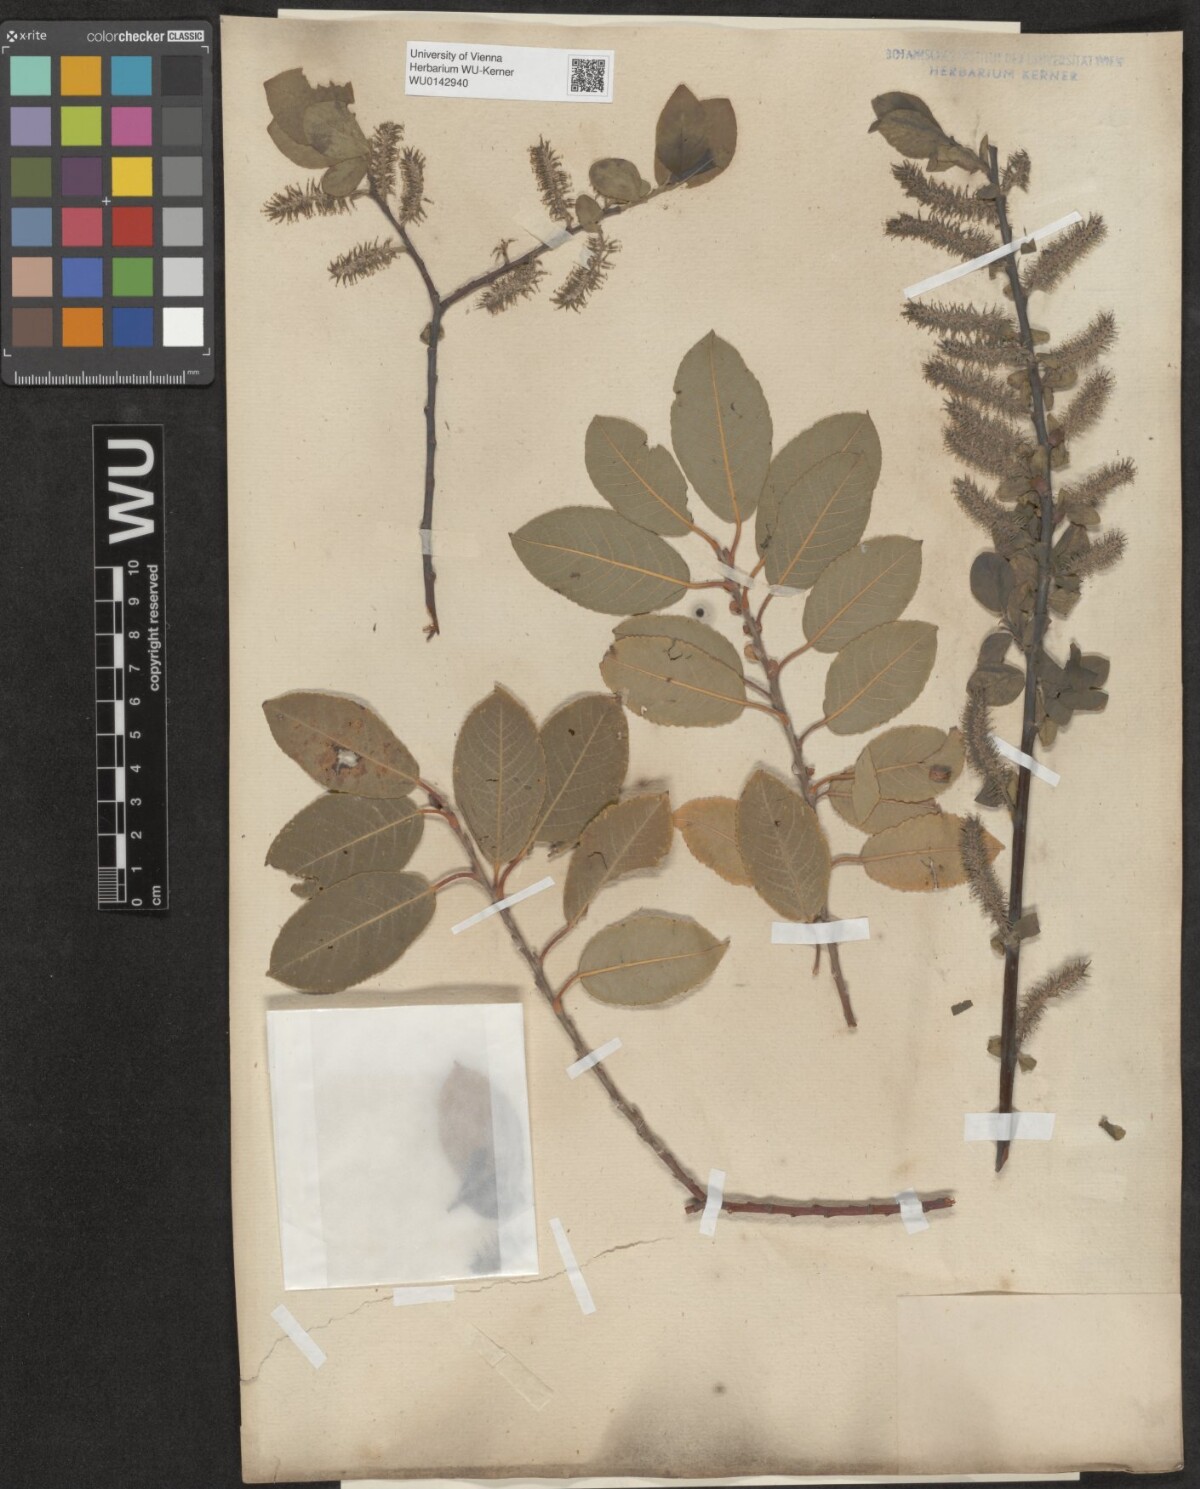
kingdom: Plantae
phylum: Tracheophyta
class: Magnoliopsida
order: Malpighiales
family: Salicaceae
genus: Salix
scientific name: Salix myrsinifolia
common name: Dark-leaved willow
